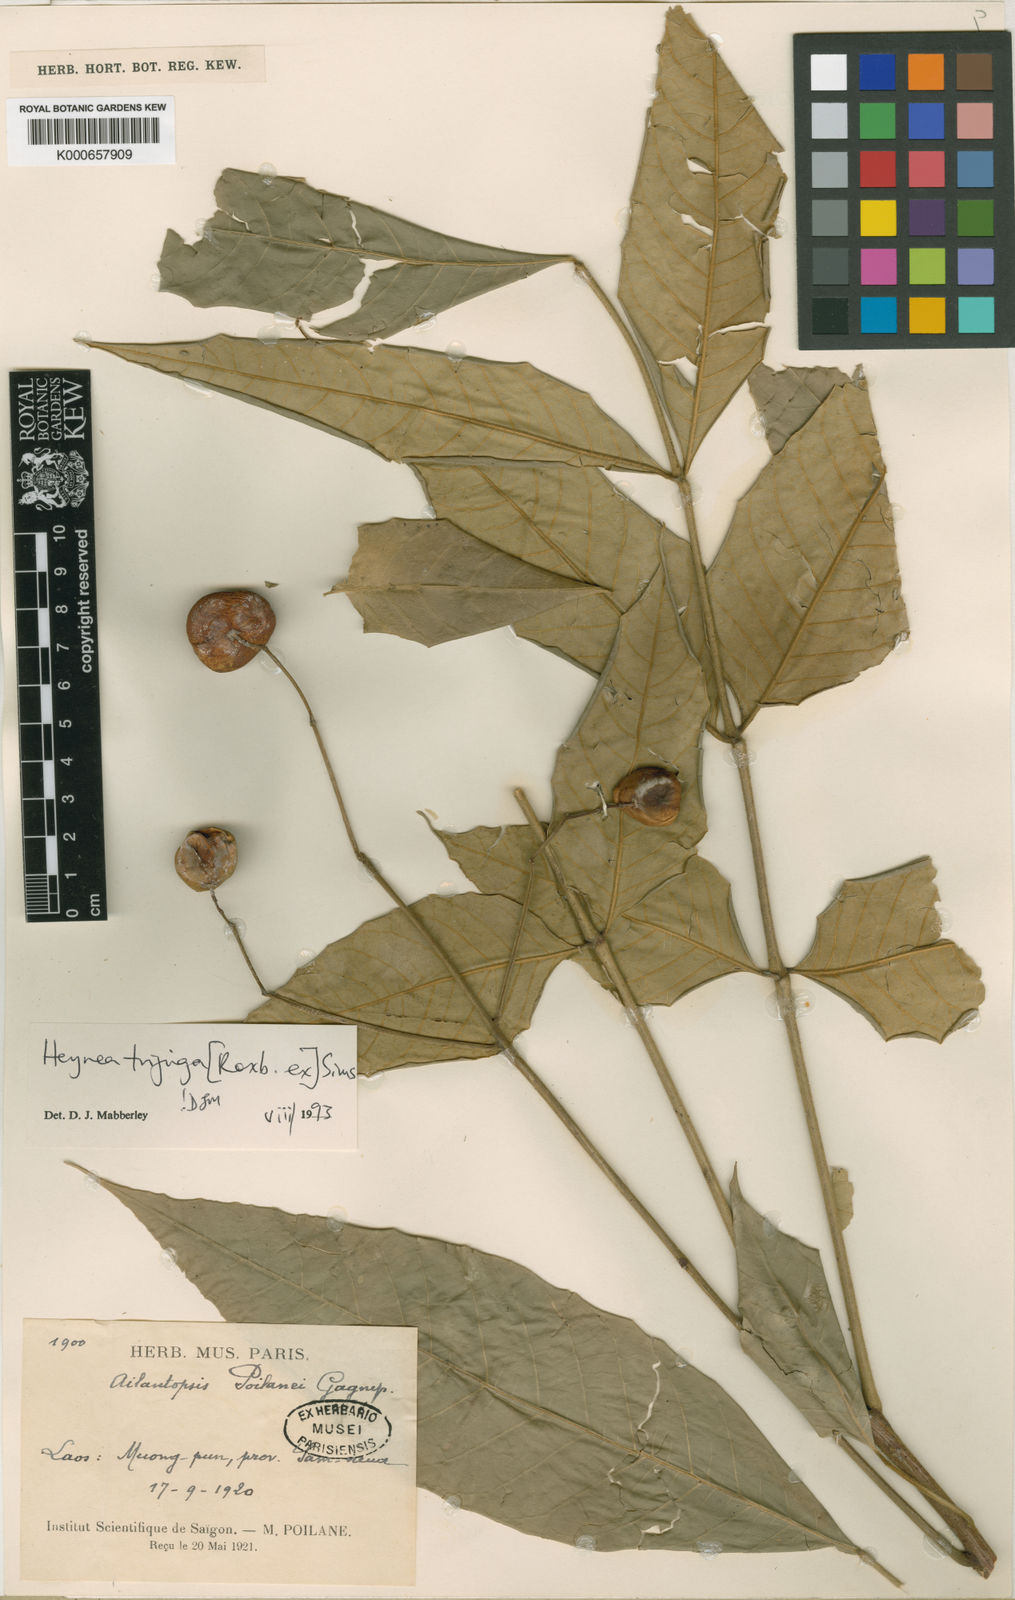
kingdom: Plantae
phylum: Tracheophyta
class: Magnoliopsida
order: Sapindales
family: Meliaceae
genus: Heynea
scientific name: Heynea trijuga
